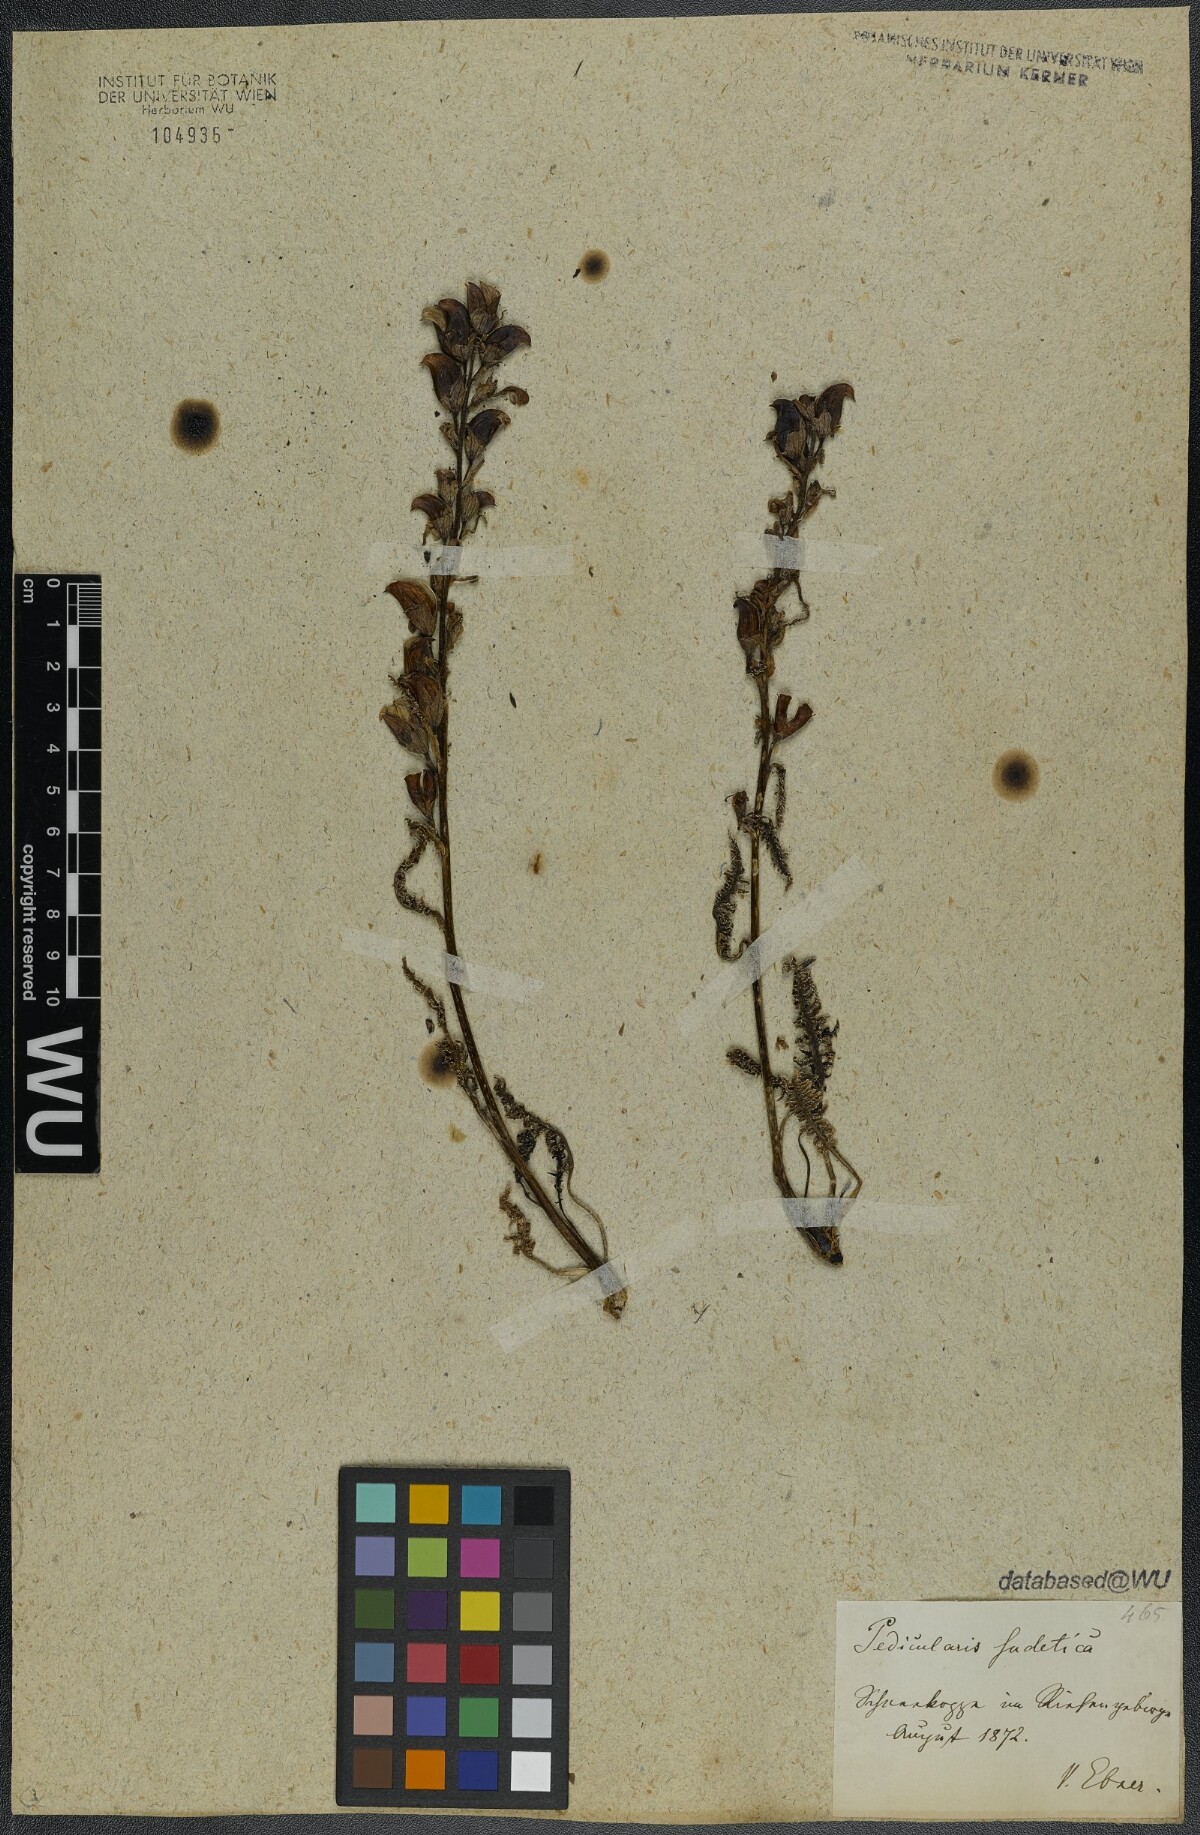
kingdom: Plantae
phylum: Tracheophyta
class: Magnoliopsida
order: Lamiales
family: Orobanchaceae
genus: Pedicularis
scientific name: Pedicularis sudetica
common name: Sudeten lousewort
